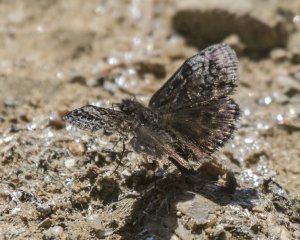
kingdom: Animalia
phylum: Arthropoda
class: Insecta
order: Lepidoptera
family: Hesperiidae
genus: Erynnis
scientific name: Erynnis icelus
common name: Dreamy Duskywing
